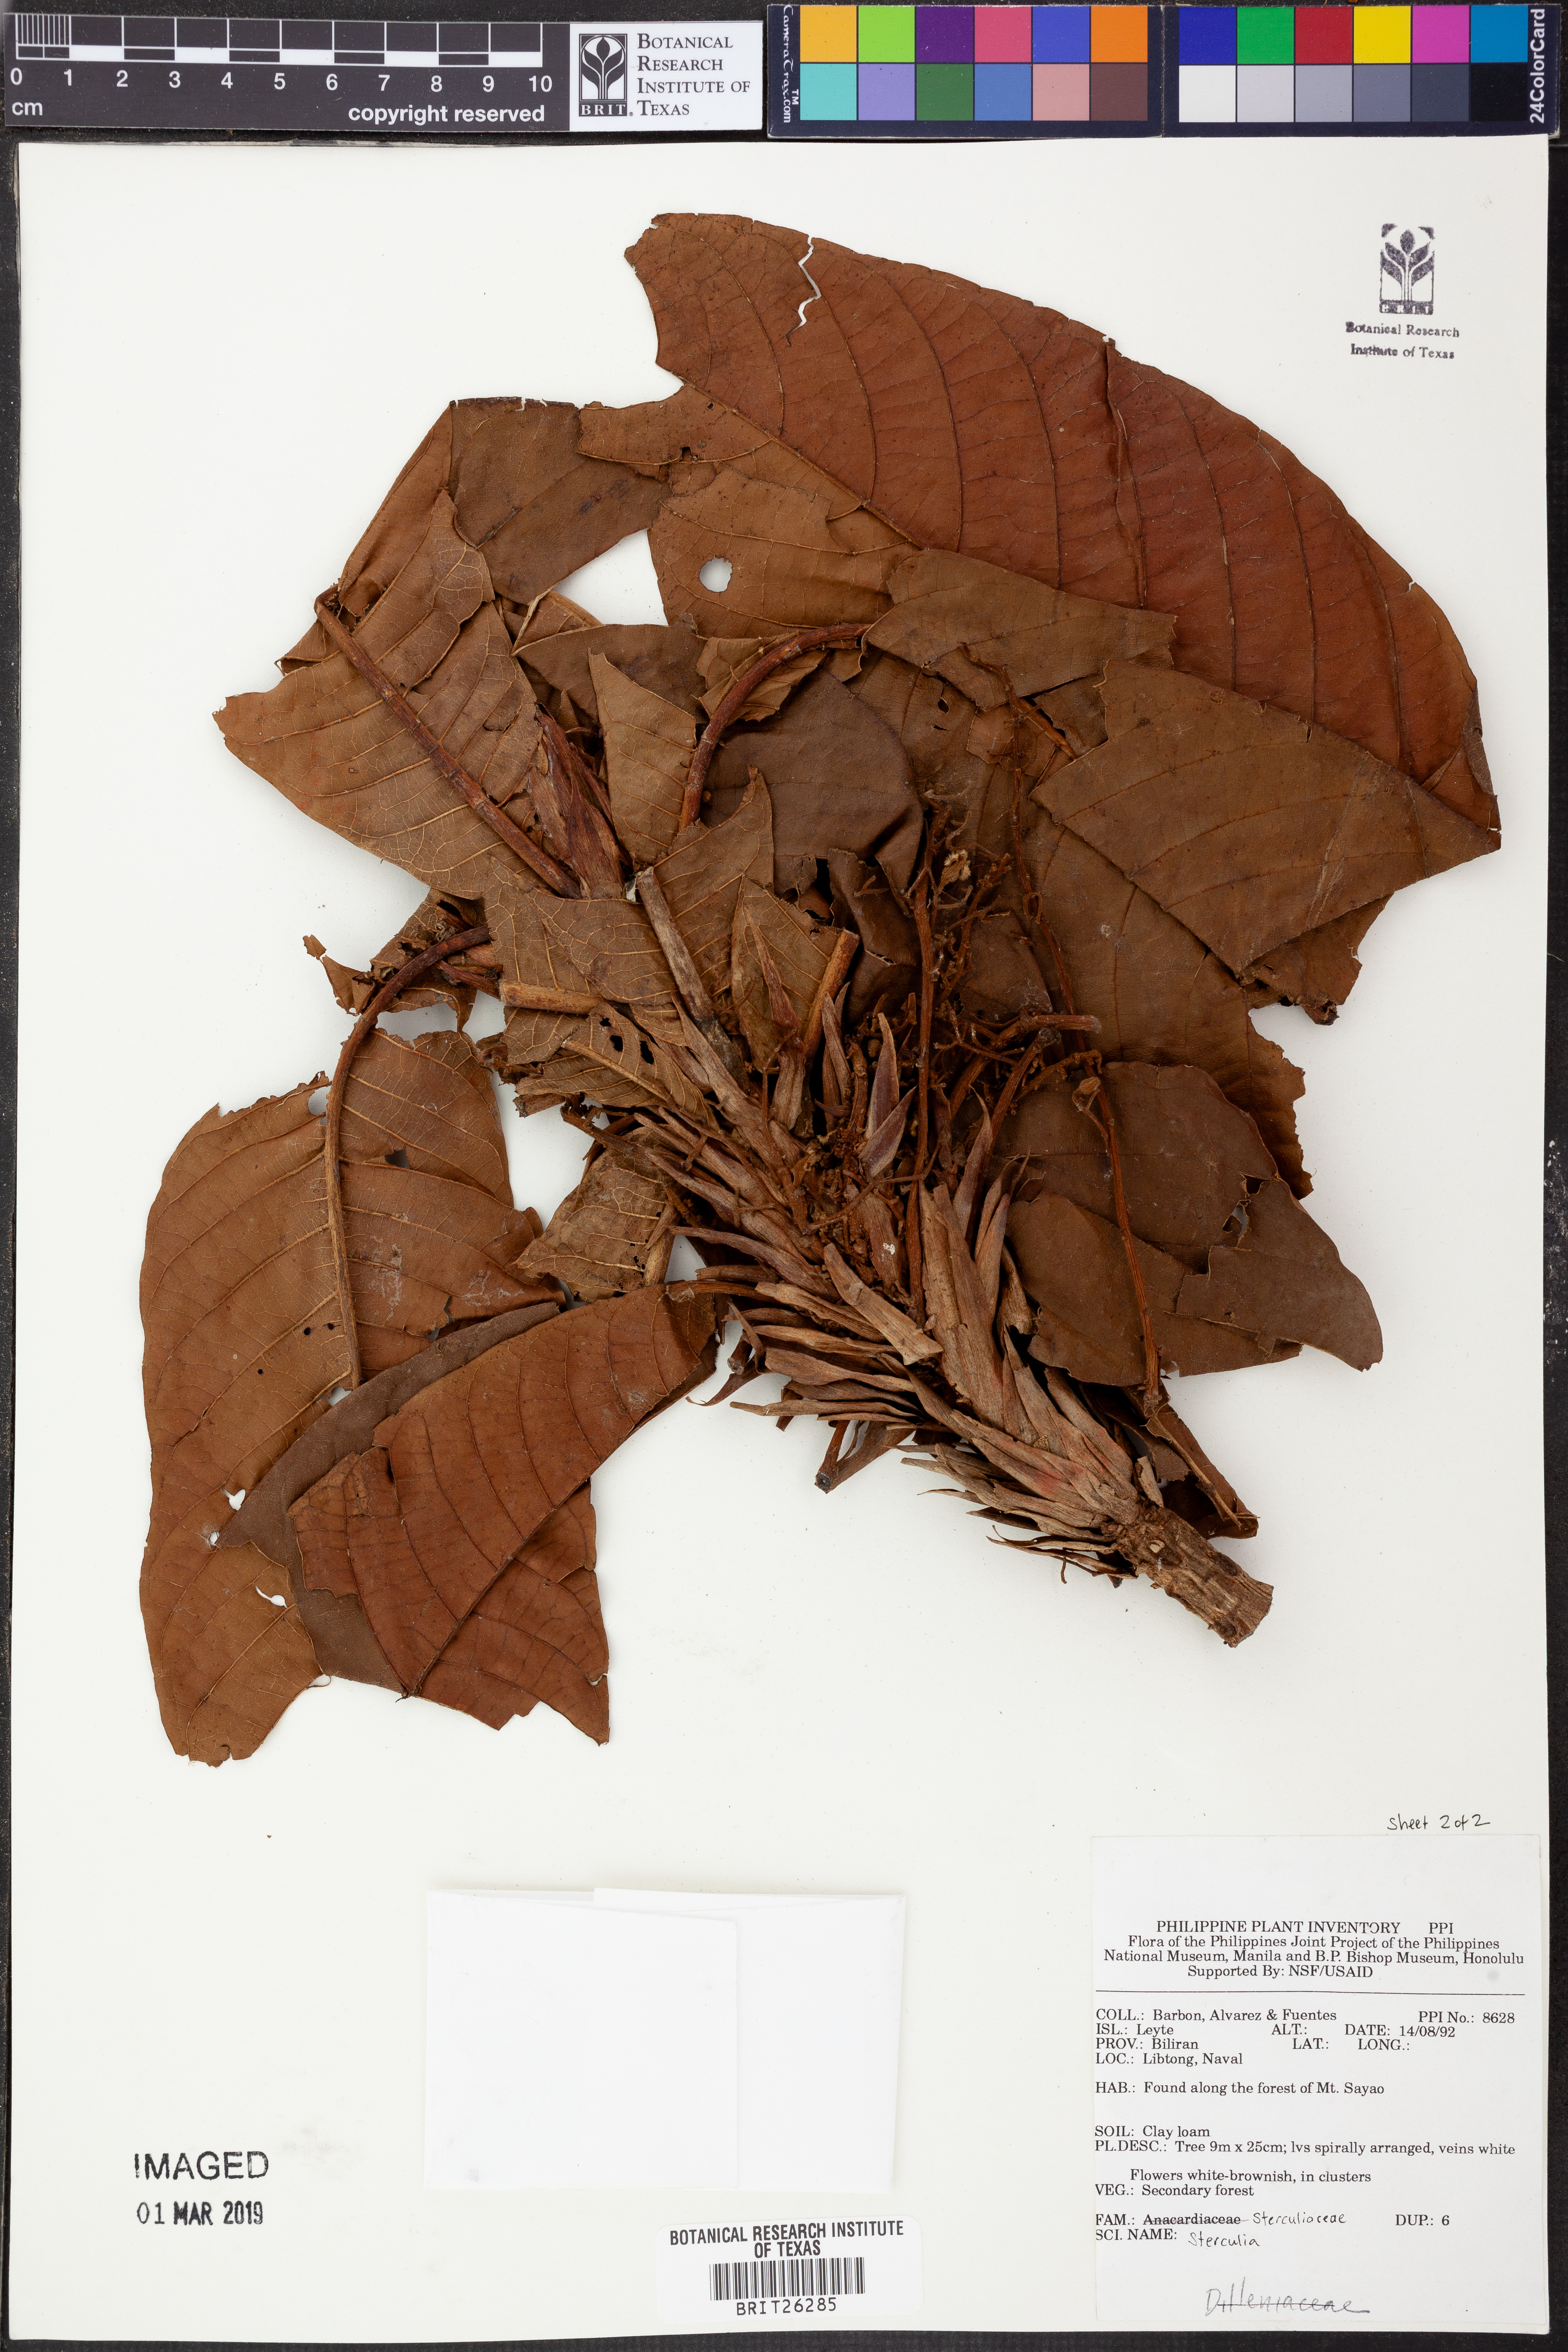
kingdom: Plantae
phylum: Tracheophyta
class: Magnoliopsida
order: Malvales
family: Malvaceae
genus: Sterculia
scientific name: Sterculia
